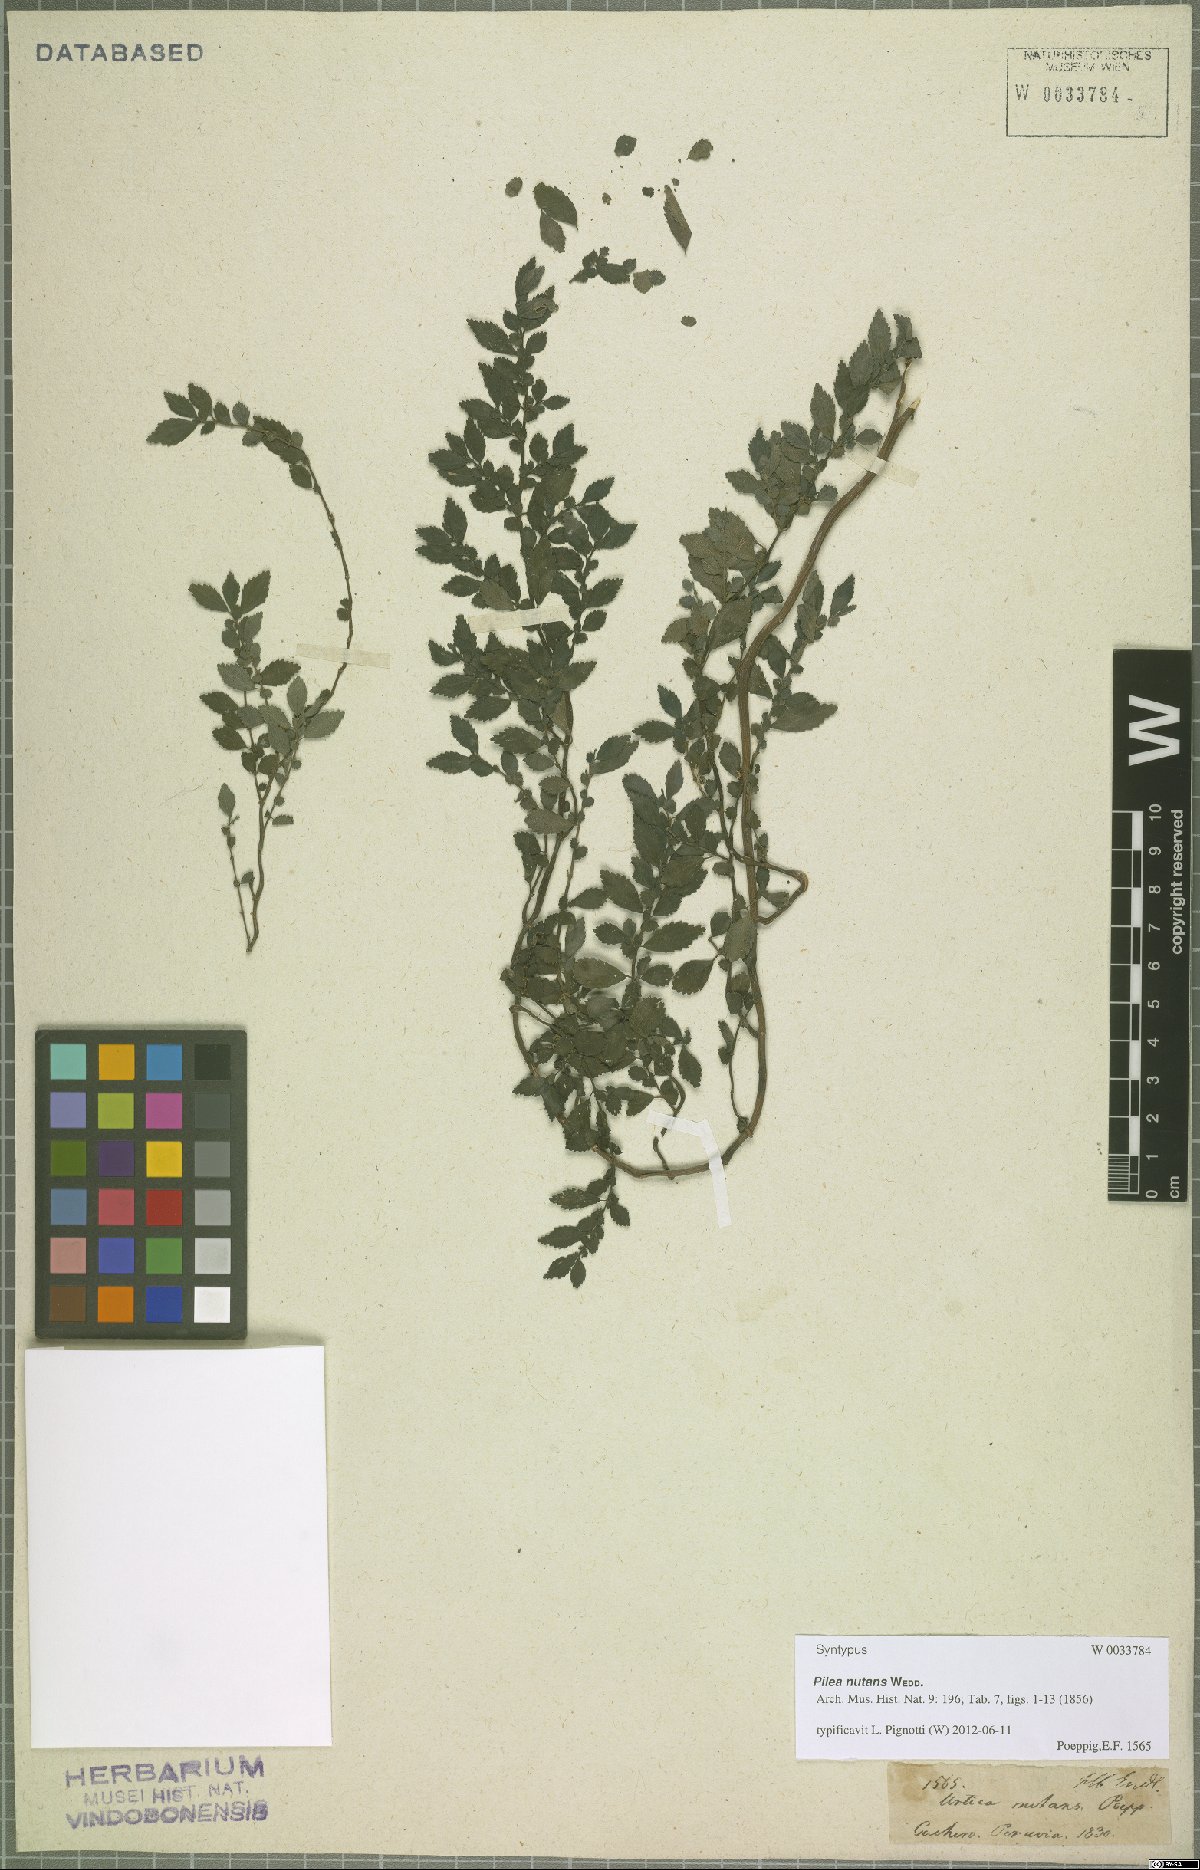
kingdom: Plantae
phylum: Tracheophyta
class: Magnoliopsida
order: Rosales
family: Urticaceae
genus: Pilea
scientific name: Pilea nutans
